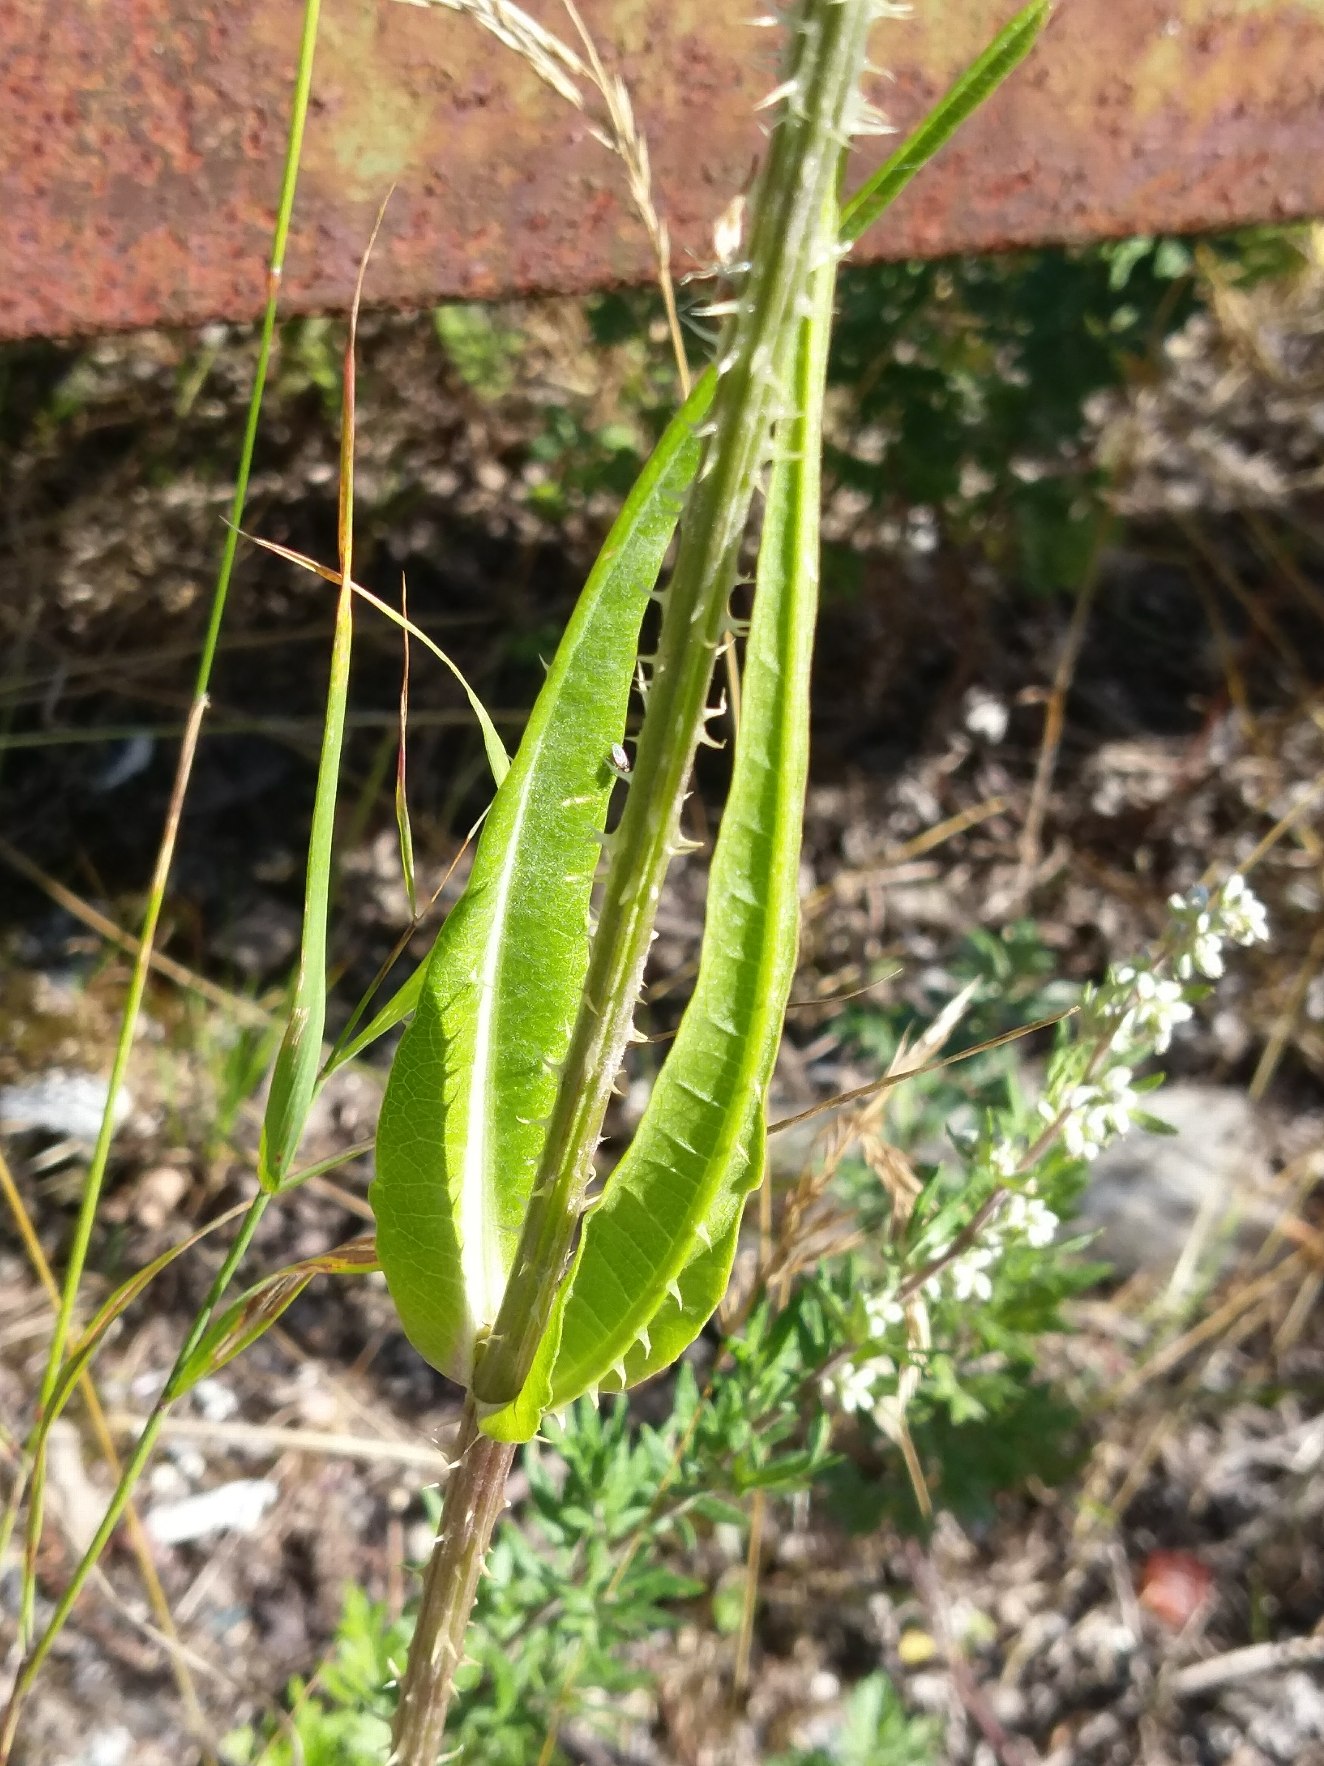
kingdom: Plantae
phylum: Tracheophyta
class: Magnoliopsida
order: Dipsacales
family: Caprifoliaceae
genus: Dipsacus
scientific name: Dipsacus fullonum
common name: Gærde-kartebolle
